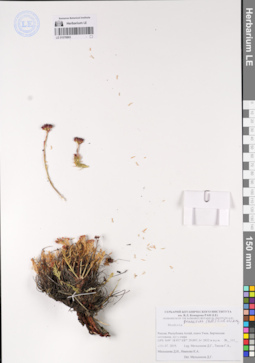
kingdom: Plantae
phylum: Tracheophyta
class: Magnoliopsida
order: Saxifragales
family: Crassulaceae
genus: Rhodiola
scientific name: Rhodiola quadrifida
